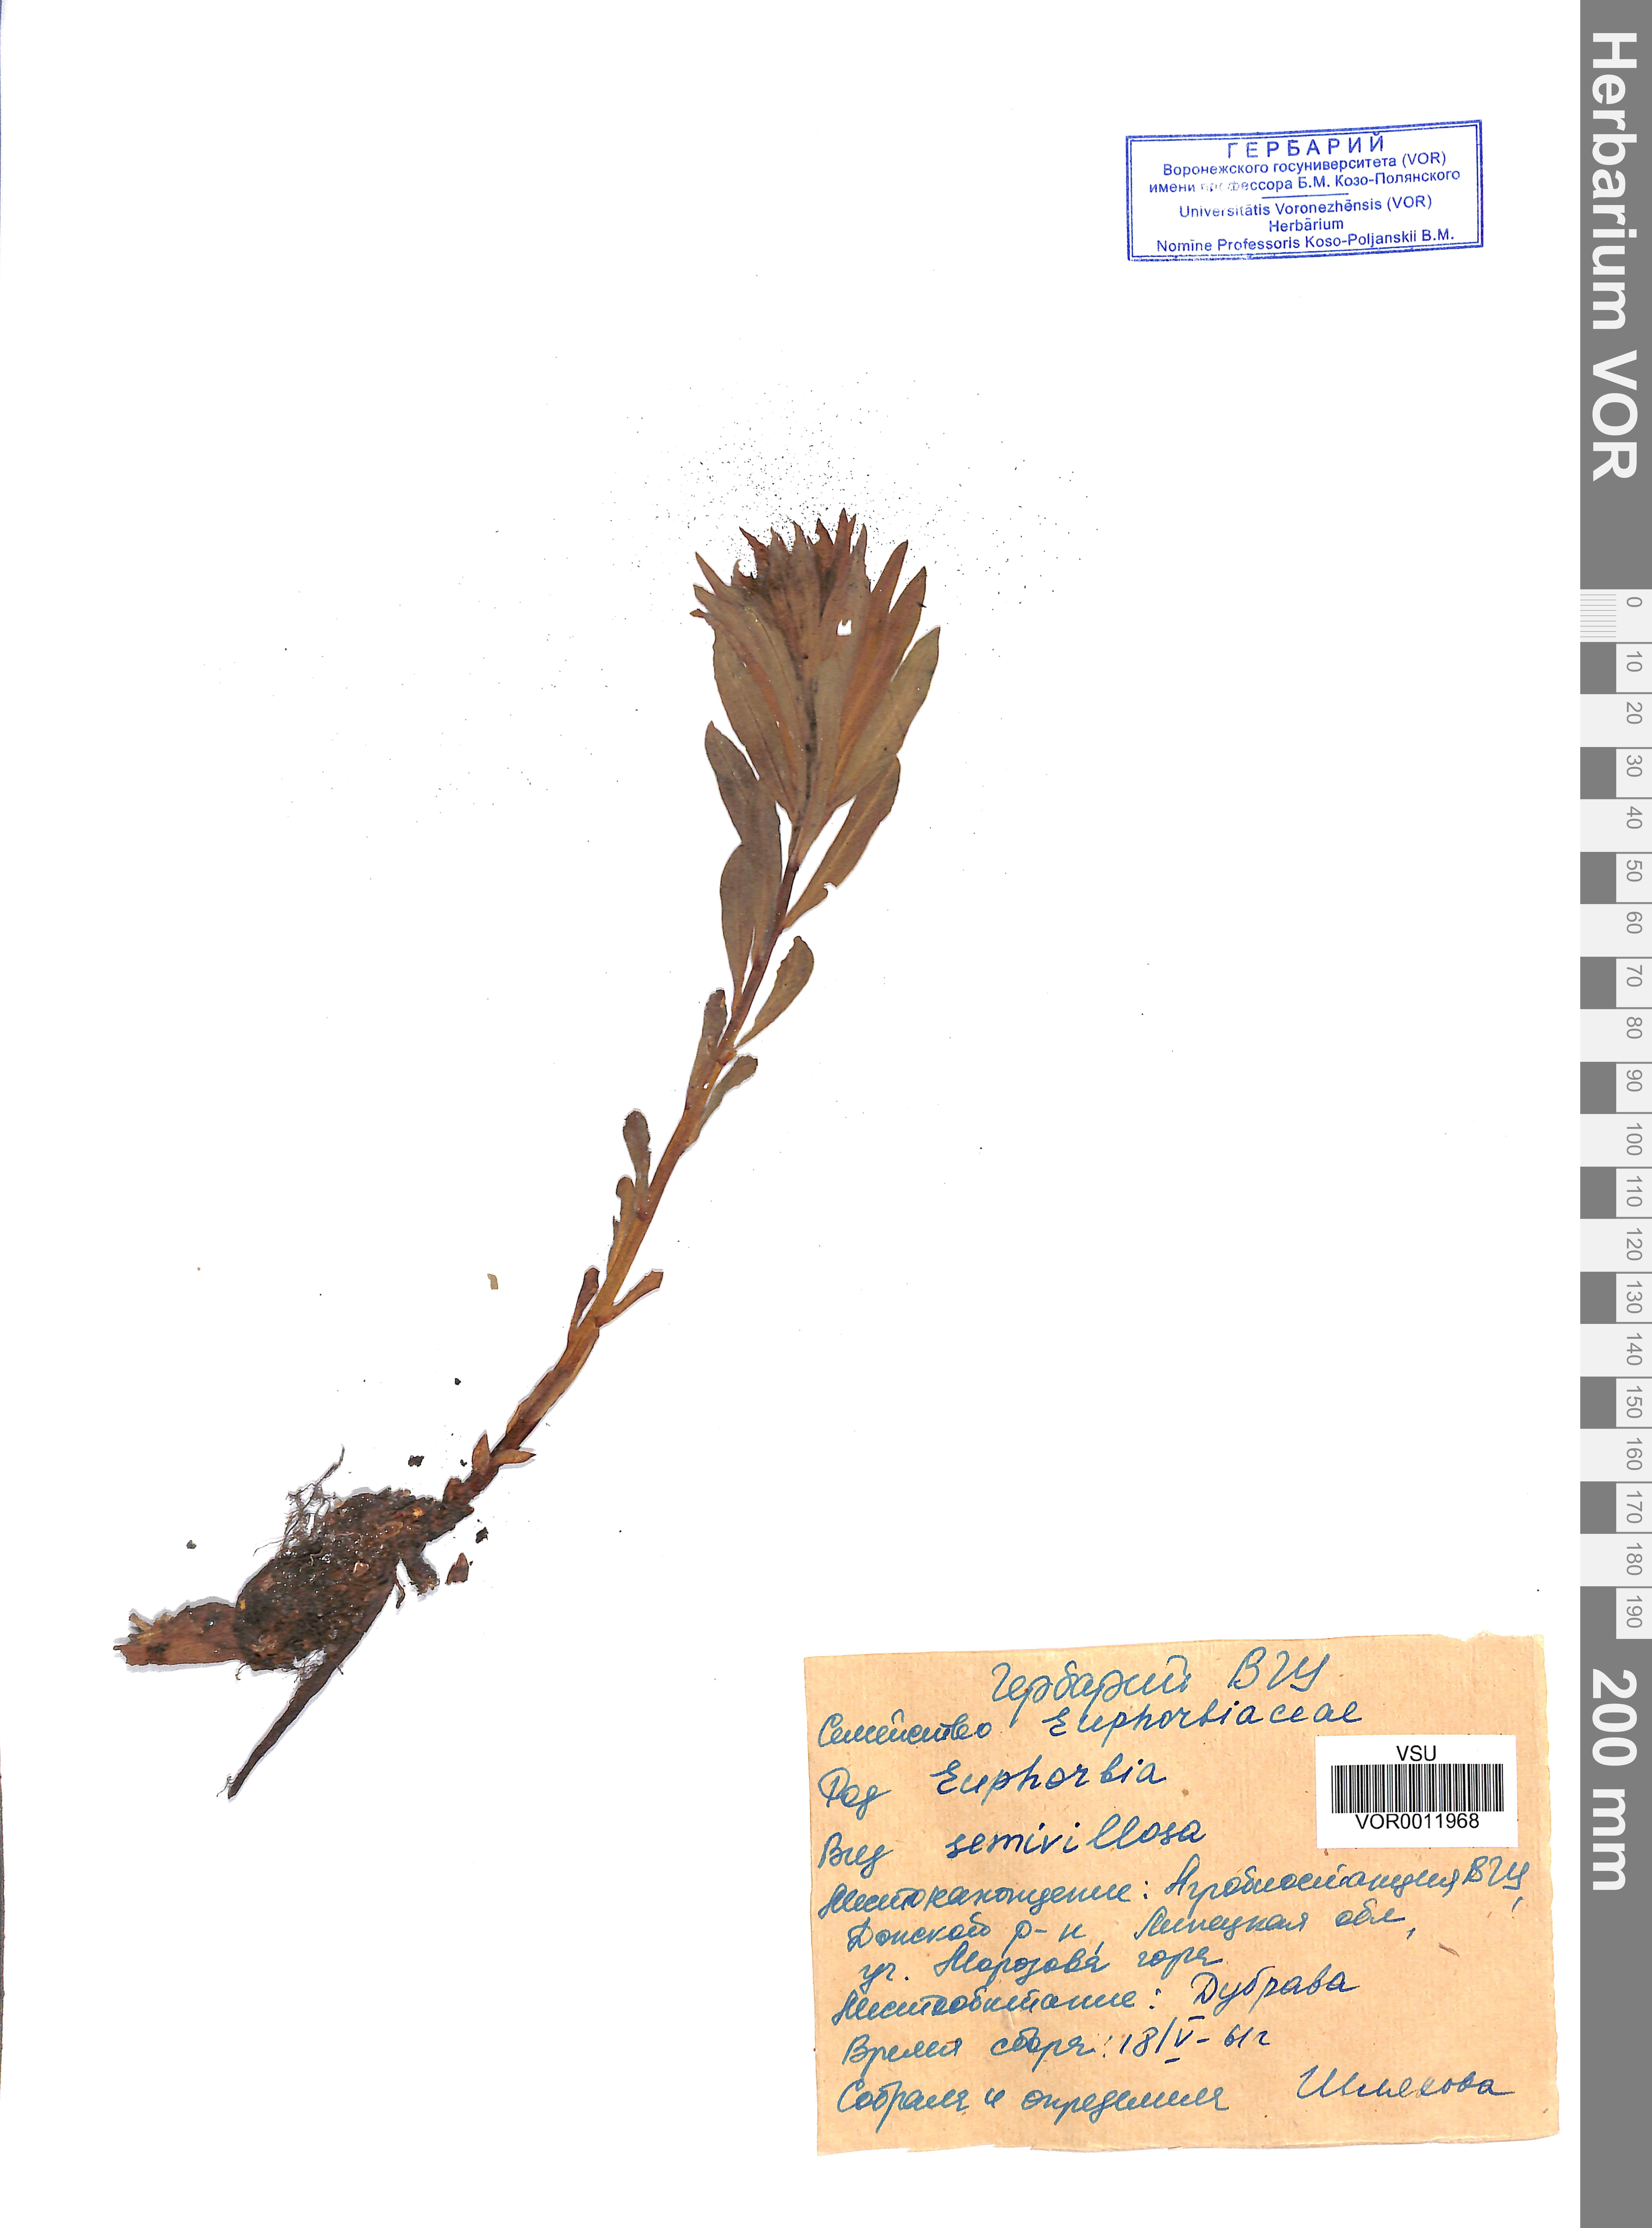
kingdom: Plantae
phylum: Tracheophyta
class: Magnoliopsida
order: Malpighiales
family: Euphorbiaceae
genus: Euphorbia
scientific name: Euphorbia semivillosa
